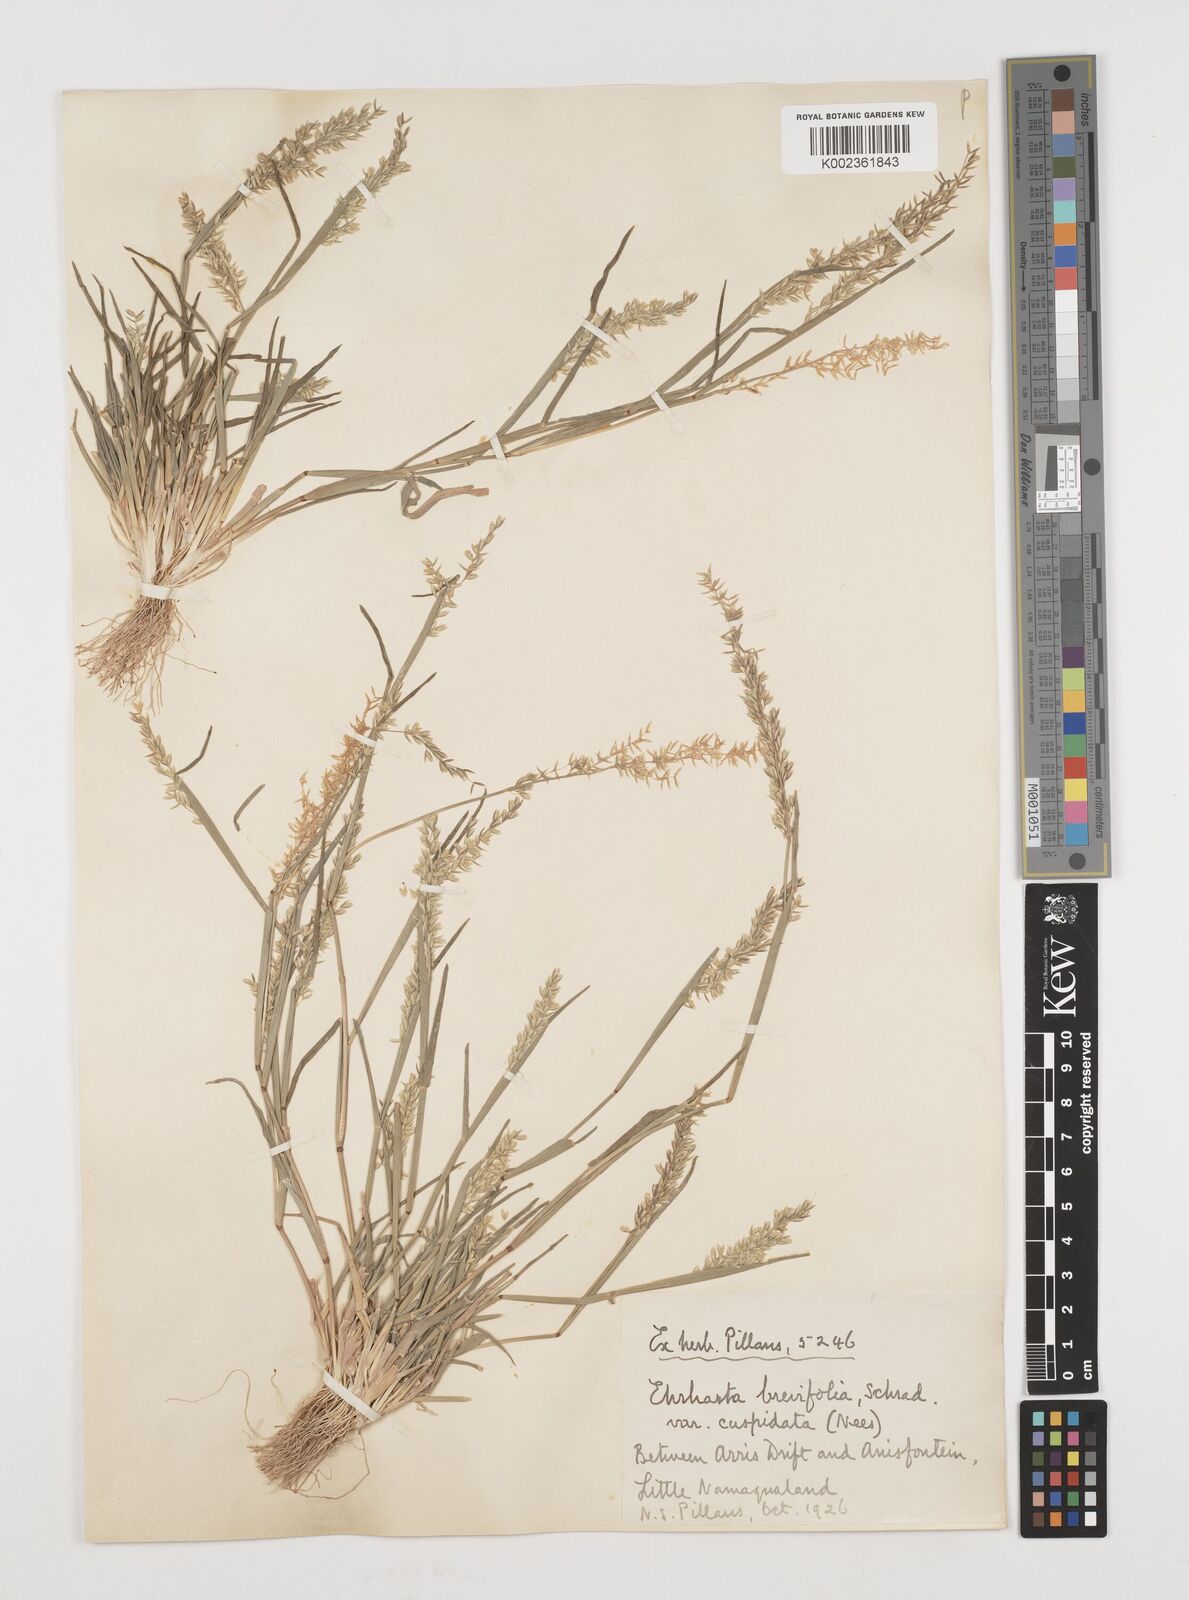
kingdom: Plantae
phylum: Tracheophyta
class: Liliopsida
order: Poales
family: Poaceae
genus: Ehrharta
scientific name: Ehrharta brevifolia
